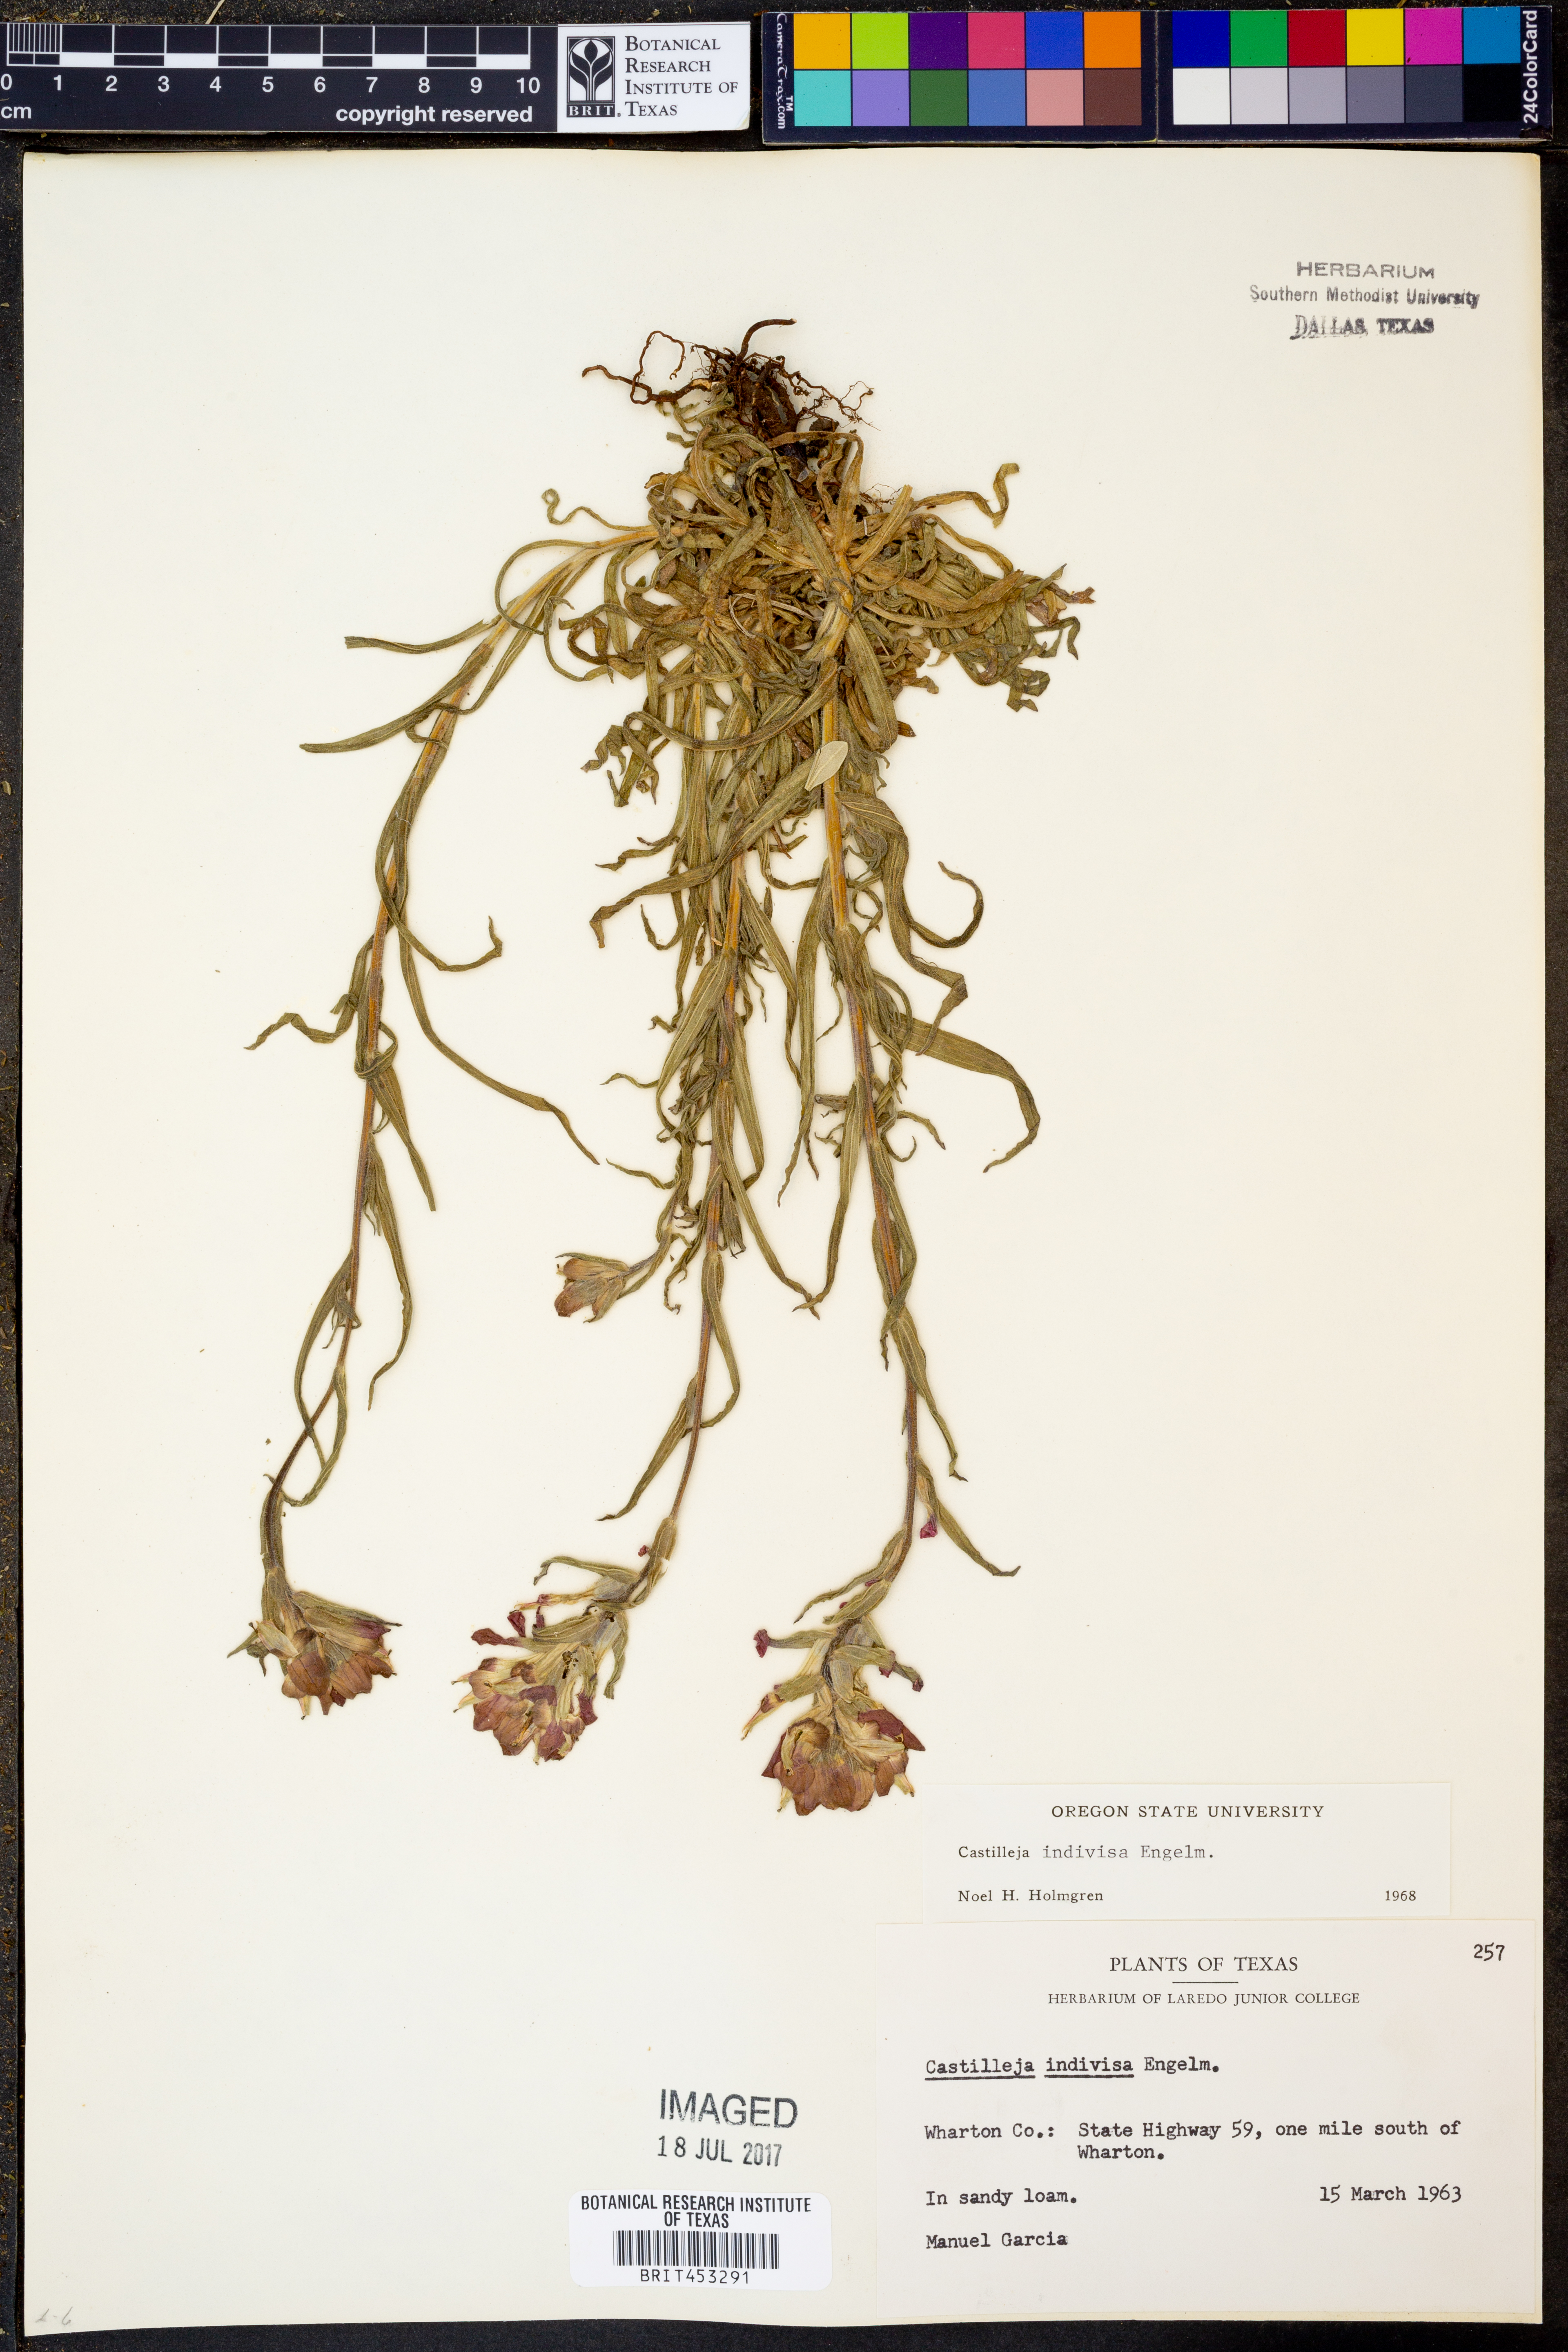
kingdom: Plantae
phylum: Tracheophyta
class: Magnoliopsida
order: Lamiales
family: Orobanchaceae
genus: Castilleja
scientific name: Castilleja indivisa
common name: Texas paintbrush
